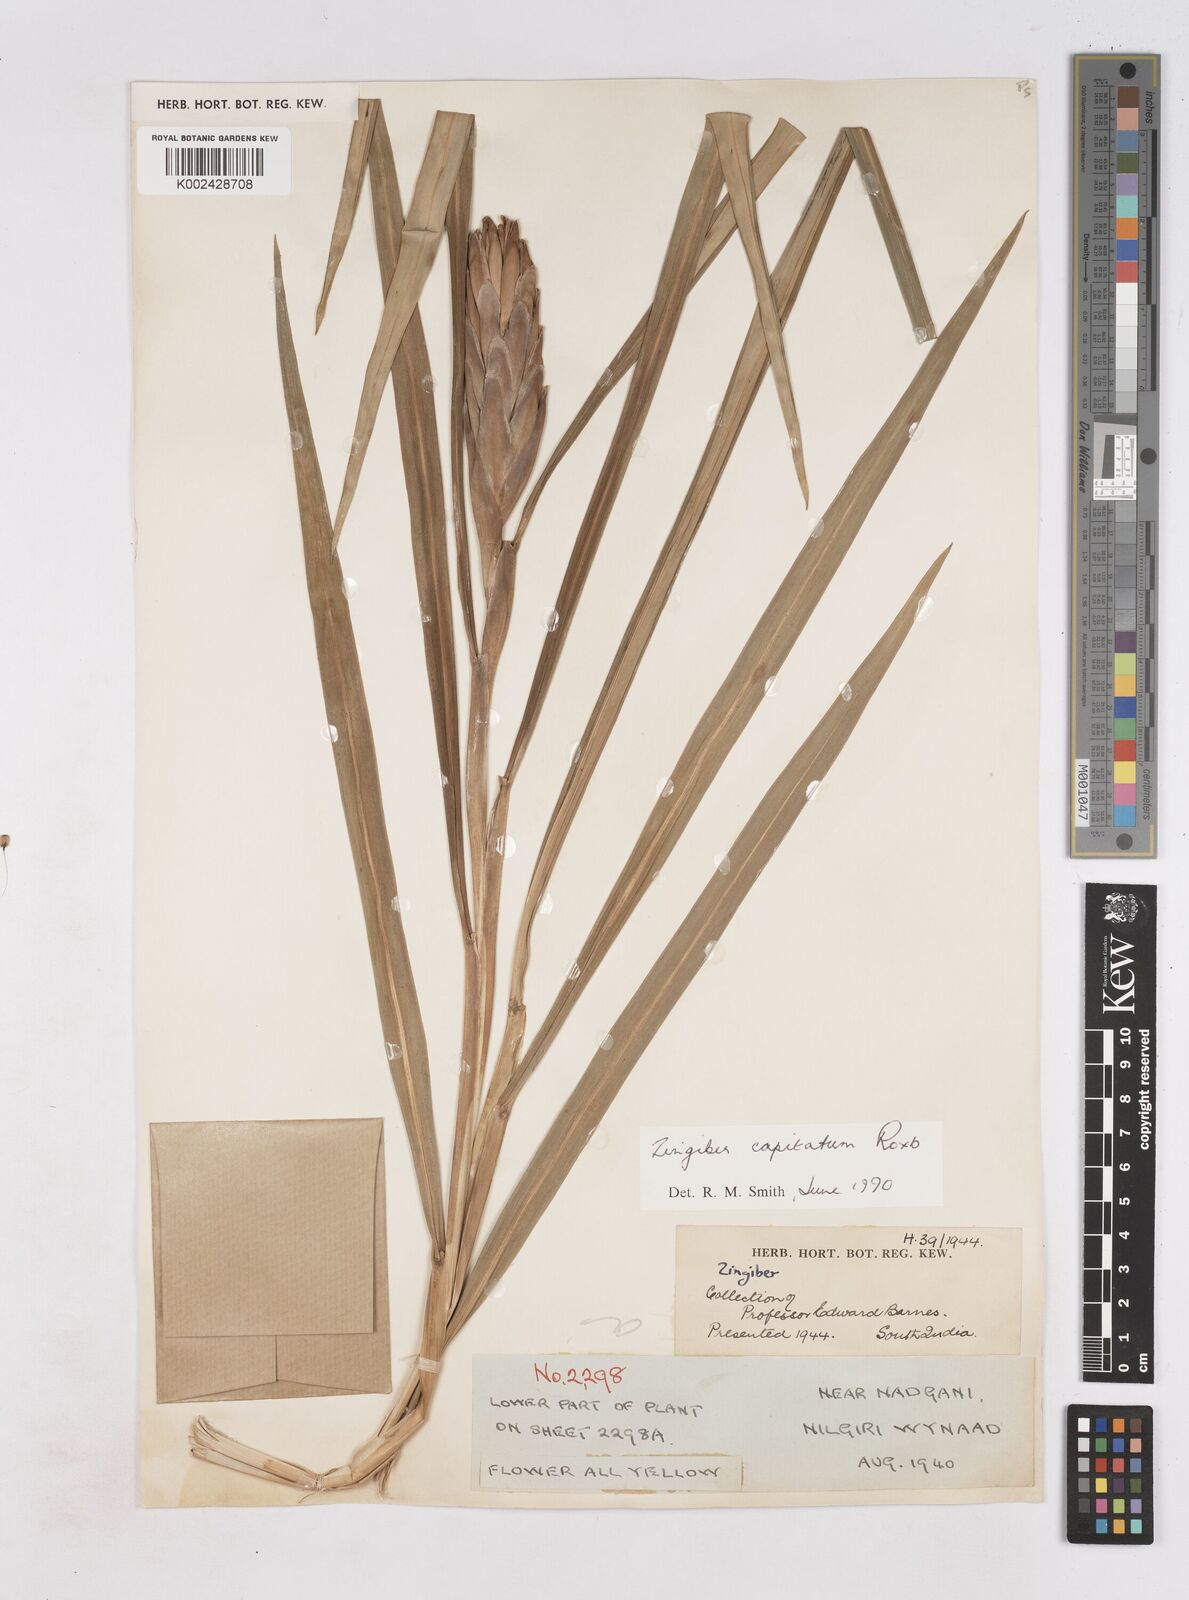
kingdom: Plantae
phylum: Tracheophyta
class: Liliopsida
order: Zingiberales
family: Zingiberaceae
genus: Zingiber
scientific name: Zingiber
